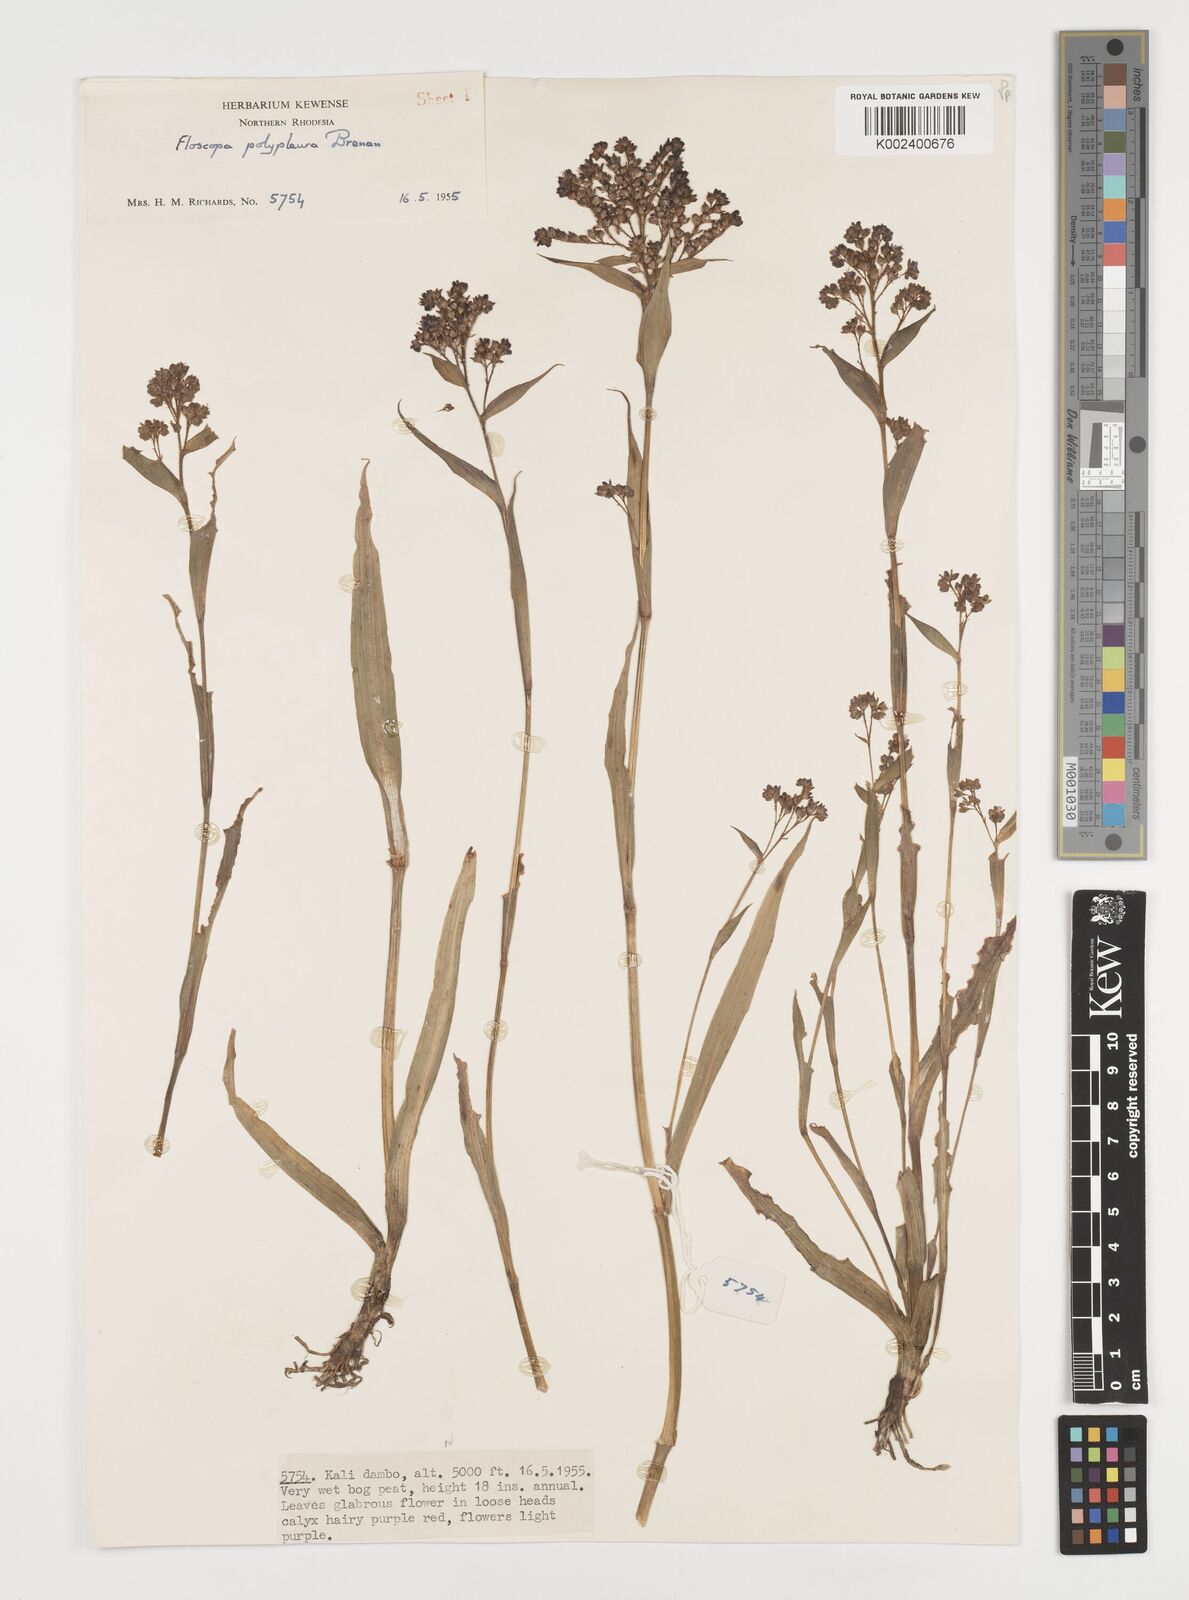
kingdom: Plantae
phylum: Tracheophyta
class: Liliopsida
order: Commelinales
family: Commelinaceae
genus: Floscopa
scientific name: Floscopa polypleura
